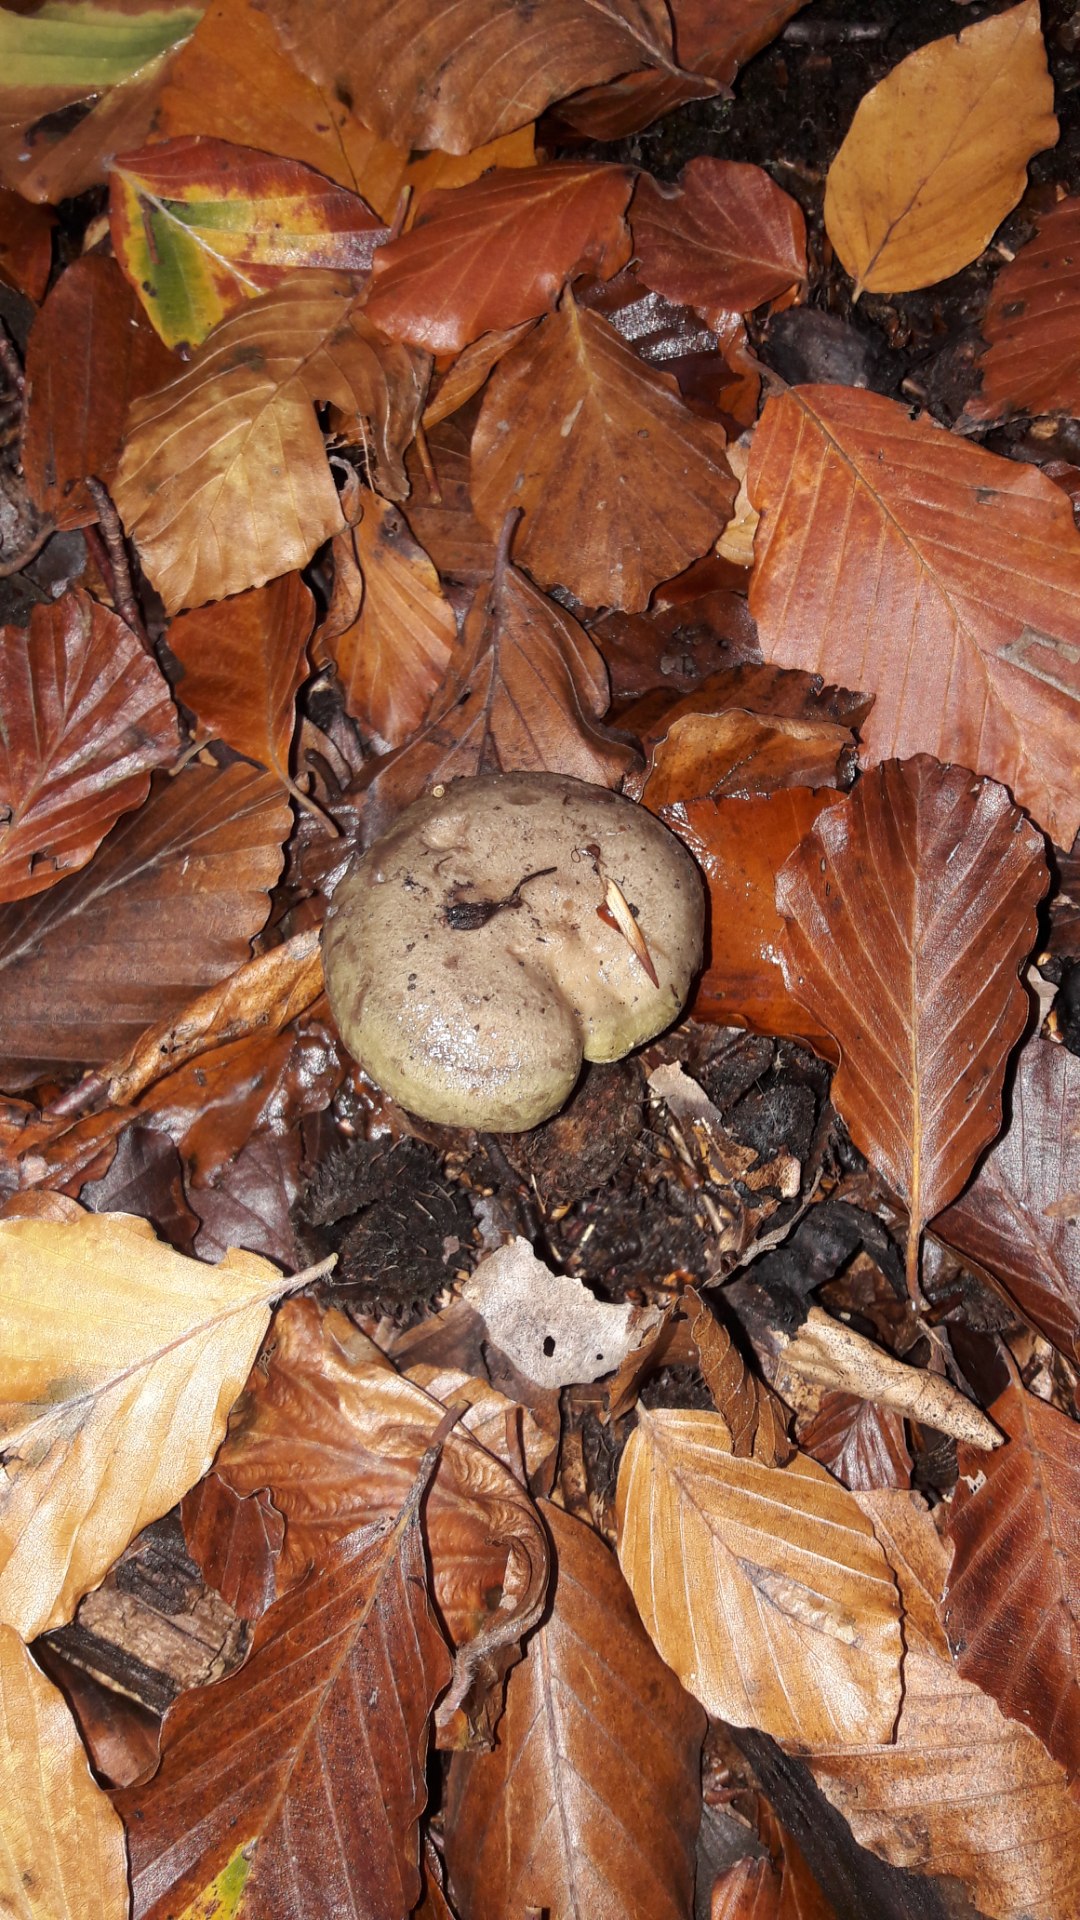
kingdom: Fungi
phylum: Basidiomycota
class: Agaricomycetes
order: Russulales
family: Russulaceae
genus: Lactarius
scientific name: Lactarius blennius
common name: dråbeplettet mælkehat
